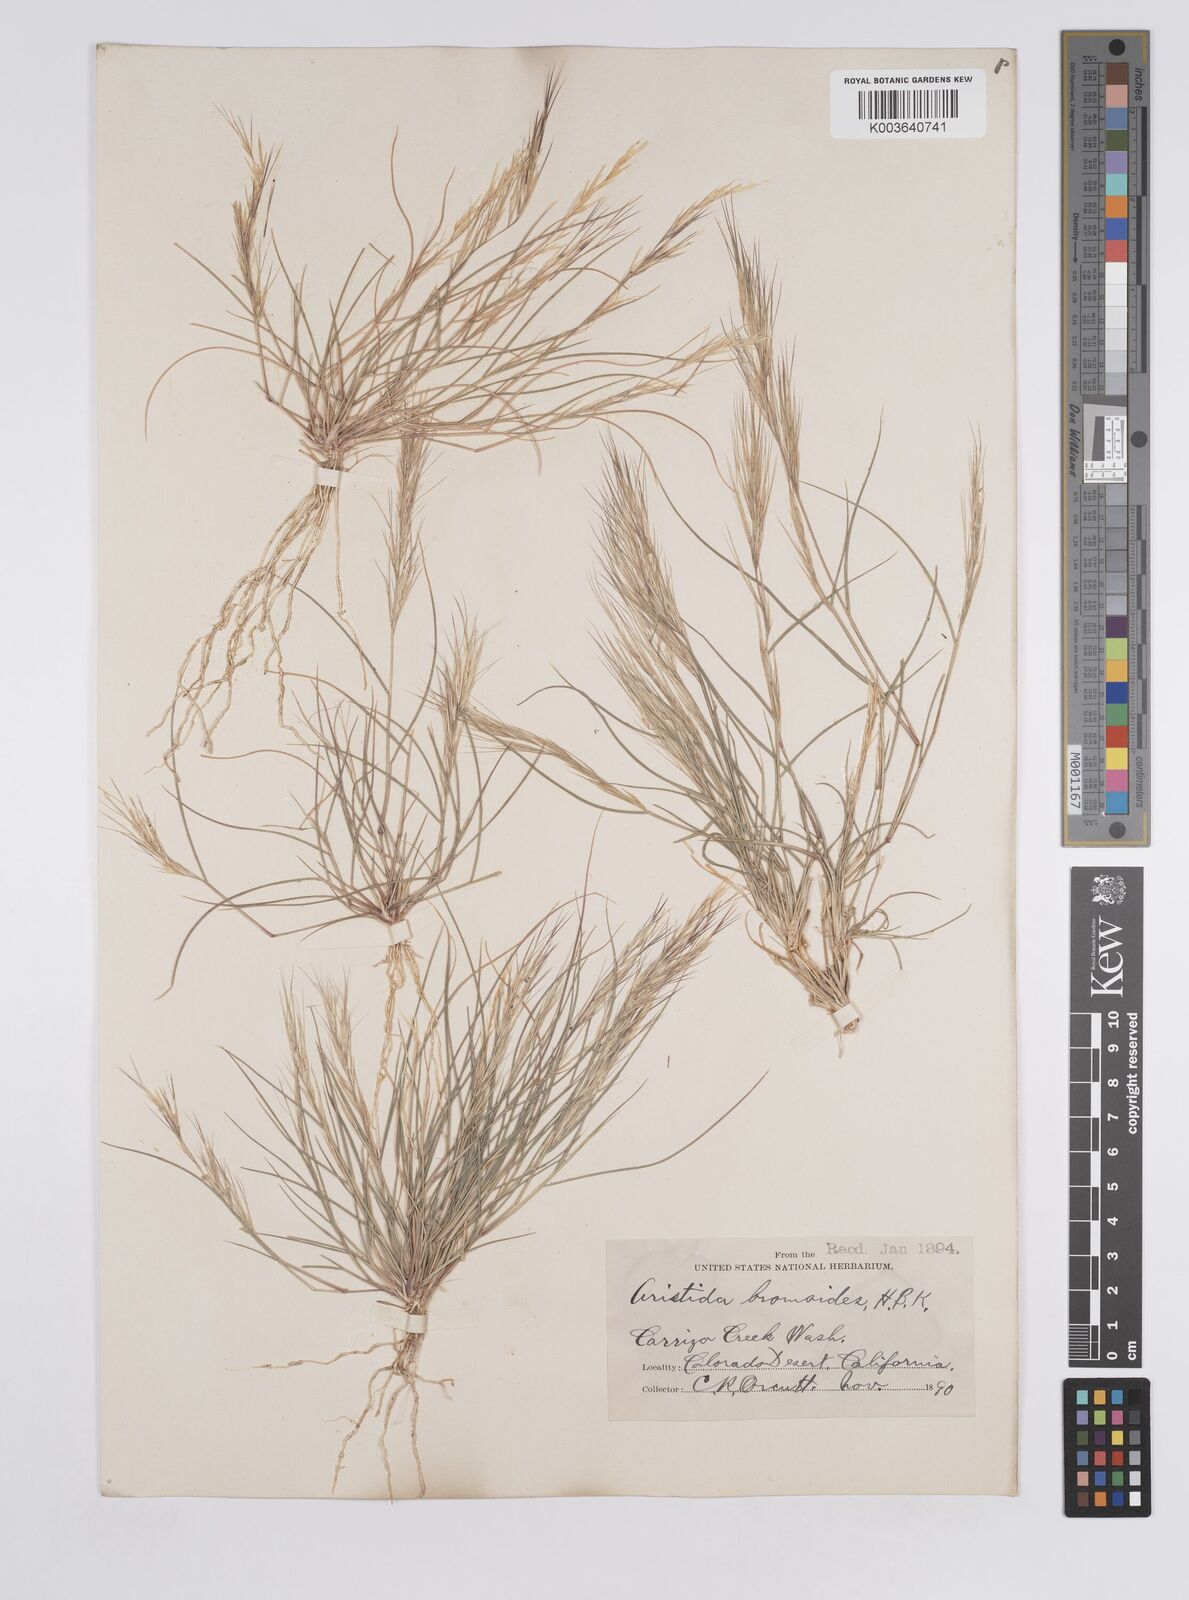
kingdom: Plantae
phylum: Tracheophyta
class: Liliopsida
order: Poales
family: Poaceae
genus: Aristida
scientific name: Aristida adscensionis
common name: Sixweeks threeawn
